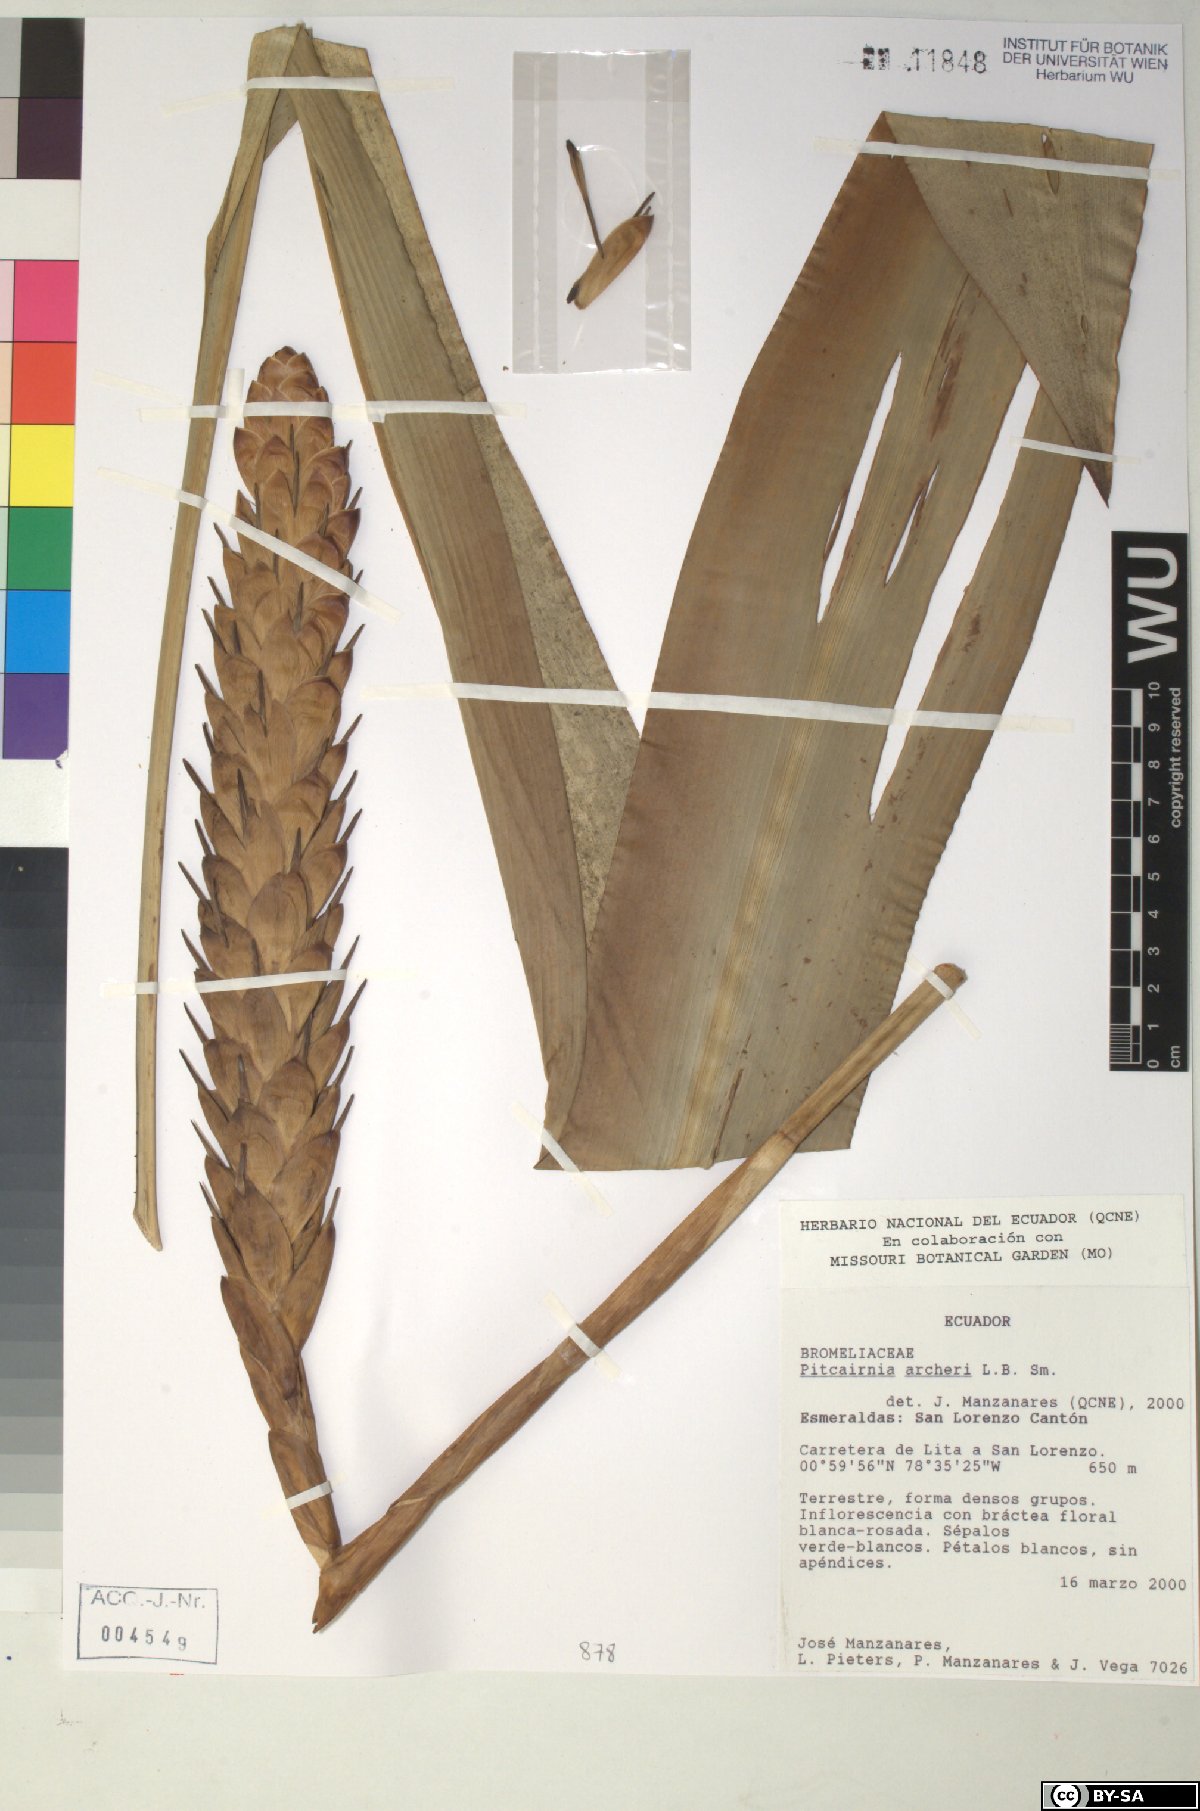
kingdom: Plantae
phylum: Tracheophyta
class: Liliopsida
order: Poales
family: Bromeliaceae
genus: Pitcairnia
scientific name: Pitcairnia archeri
